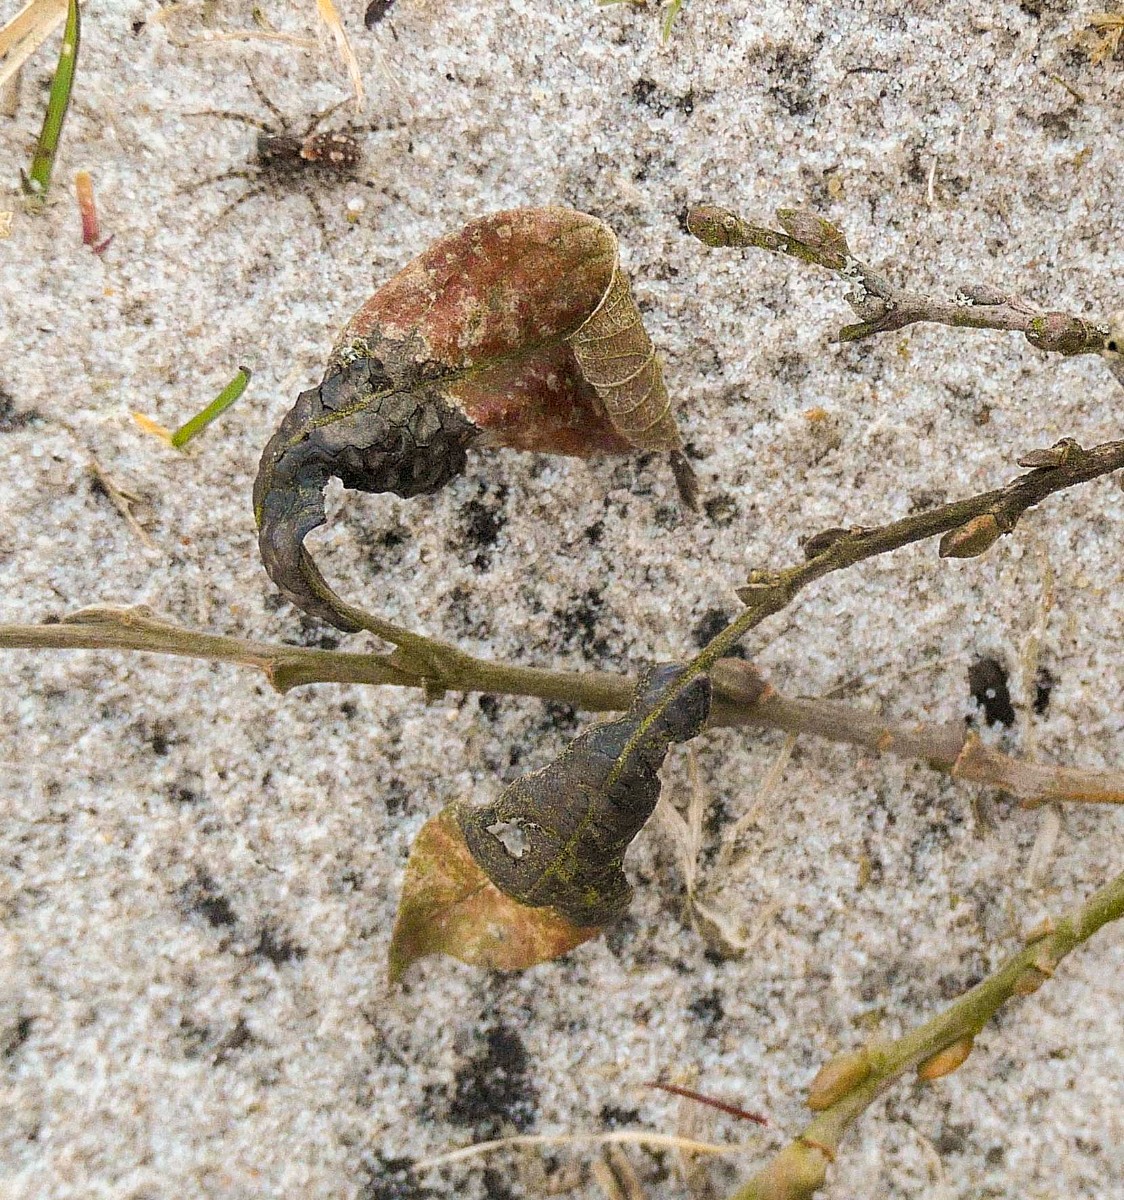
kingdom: Fungi
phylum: Ascomycota
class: Leotiomycetes
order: Rhytismatales
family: Rhytismataceae
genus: Rhytisma
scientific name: Rhytisma salicinum
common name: pile-rynkeplet
